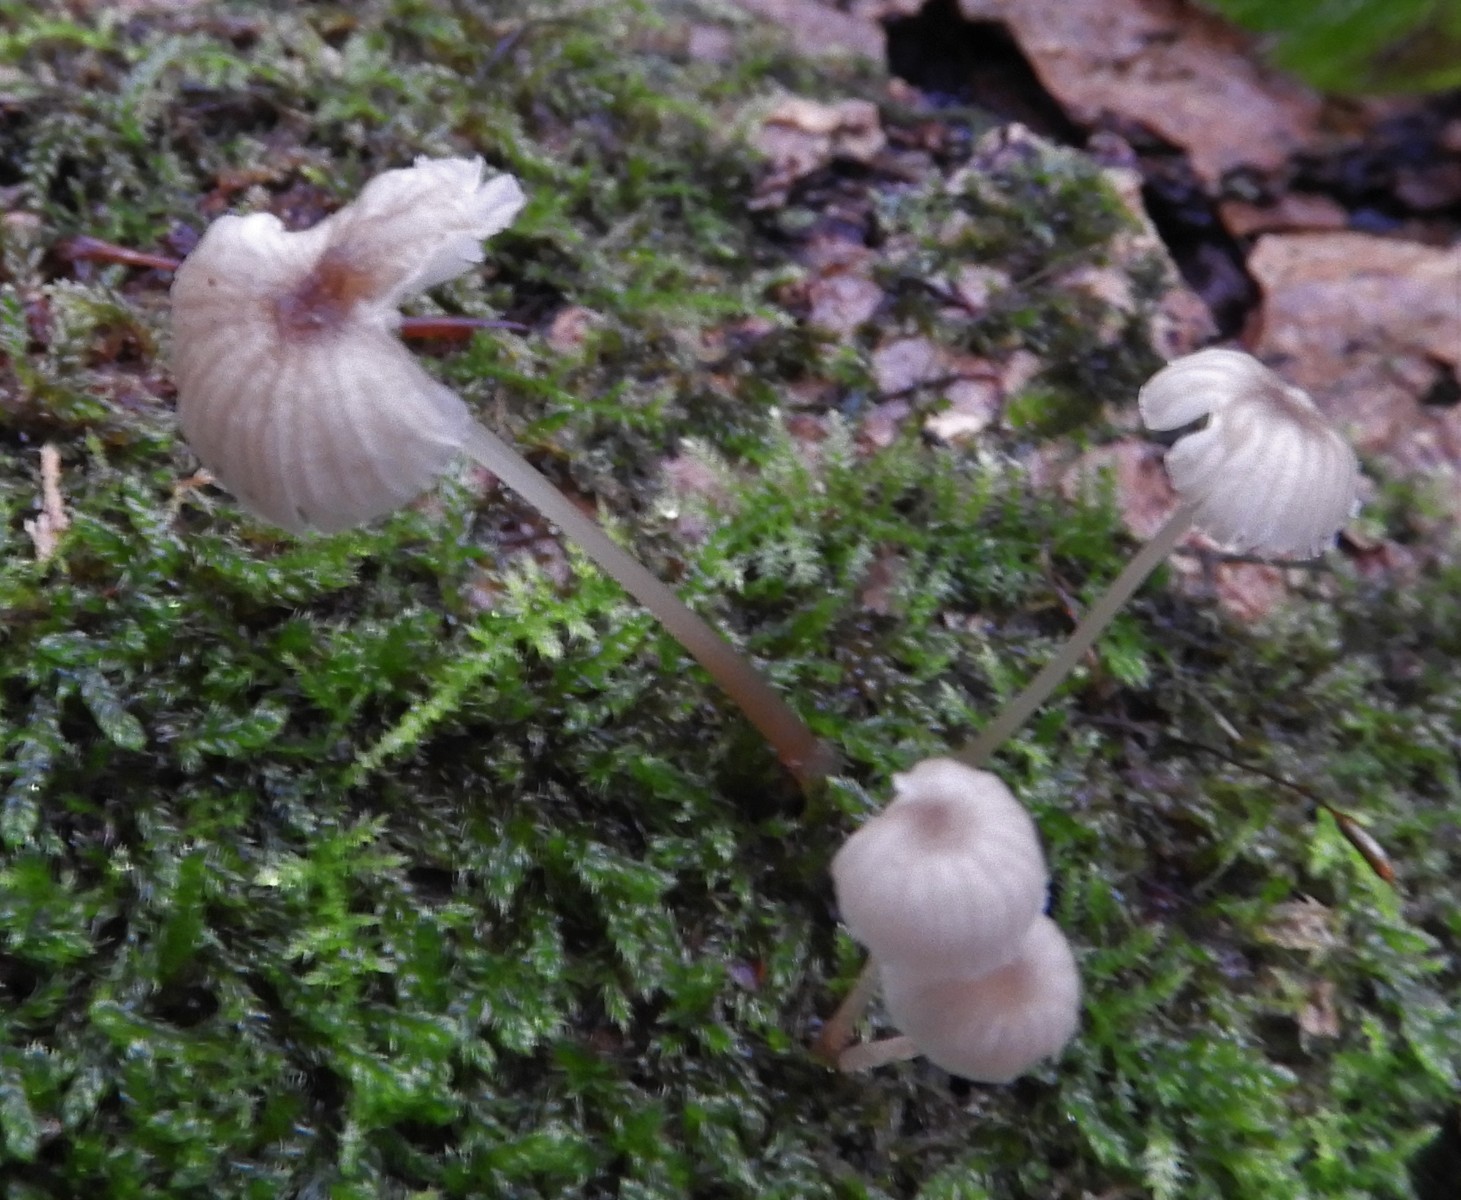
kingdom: Fungi
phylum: Basidiomycota
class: Agaricomycetes
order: Agaricales
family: Porotheleaceae
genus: Phloeomana
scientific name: Phloeomana speirea
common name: kvist-huesvamp
